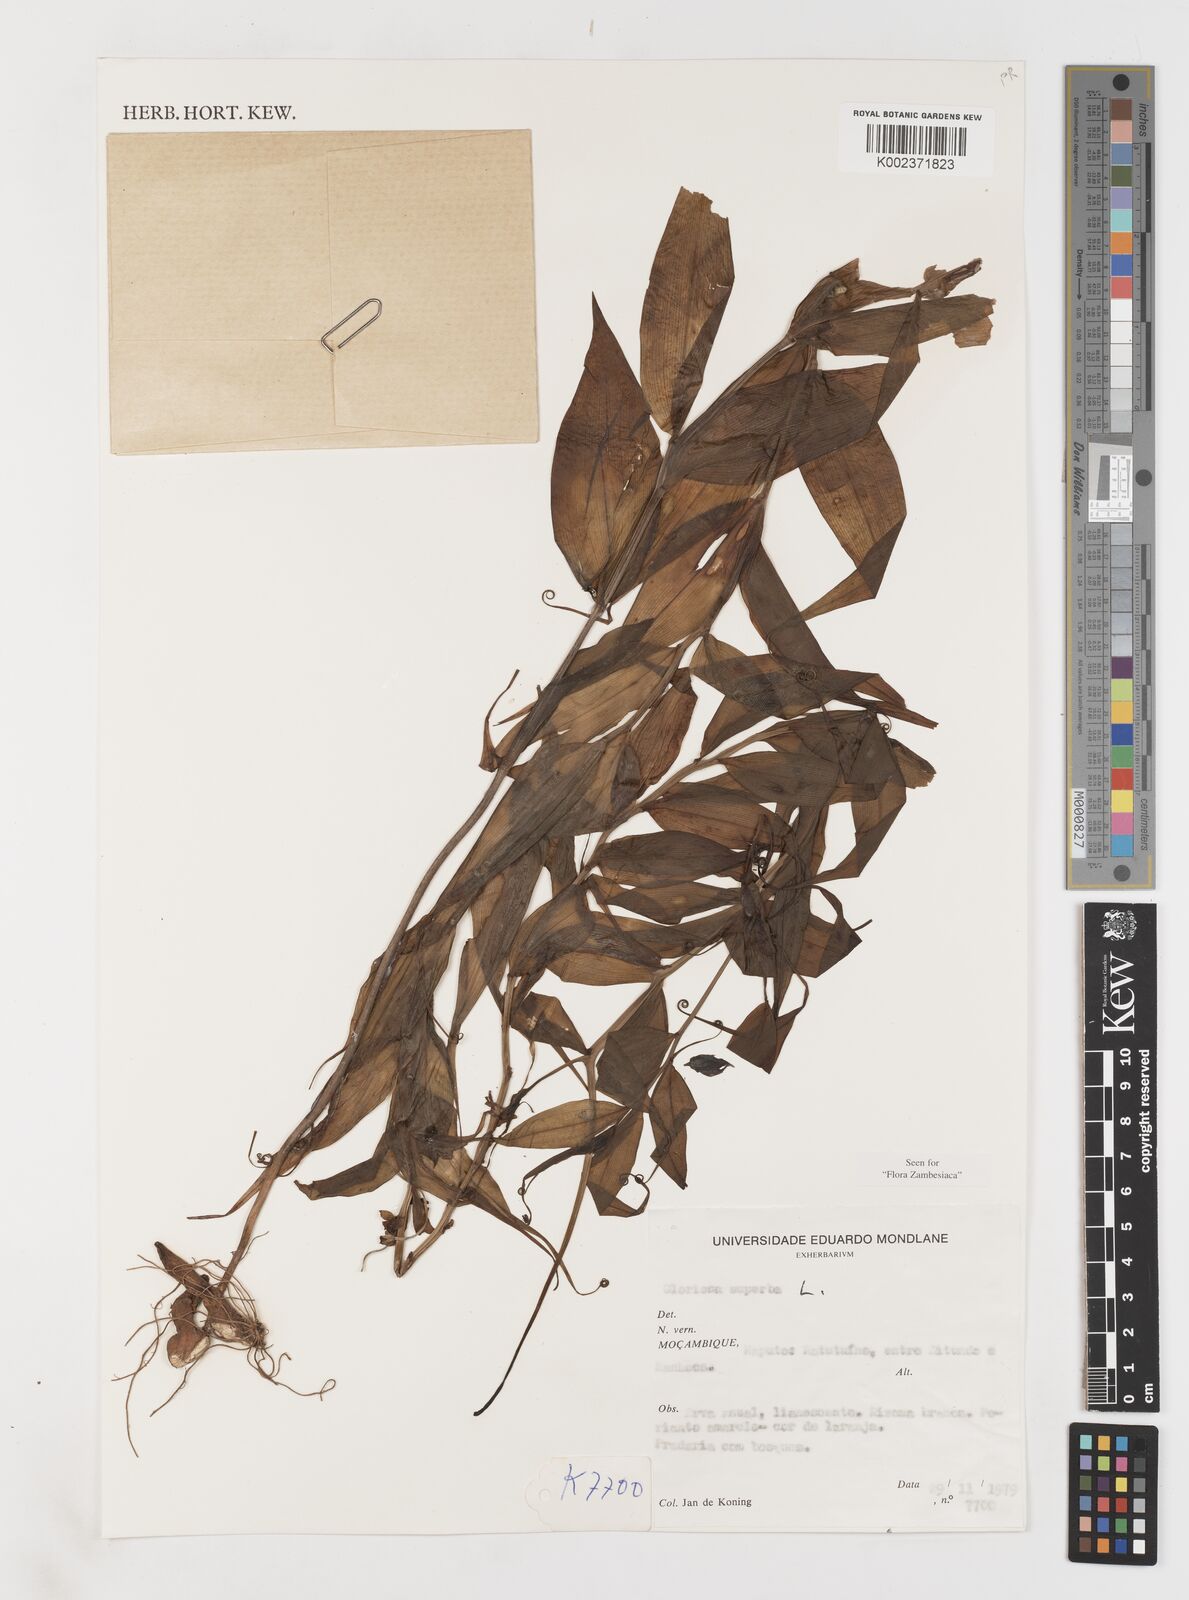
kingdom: Plantae
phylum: Tracheophyta
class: Liliopsida
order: Liliales
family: Colchicaceae
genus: Gloriosa
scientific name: Gloriosa simplex
